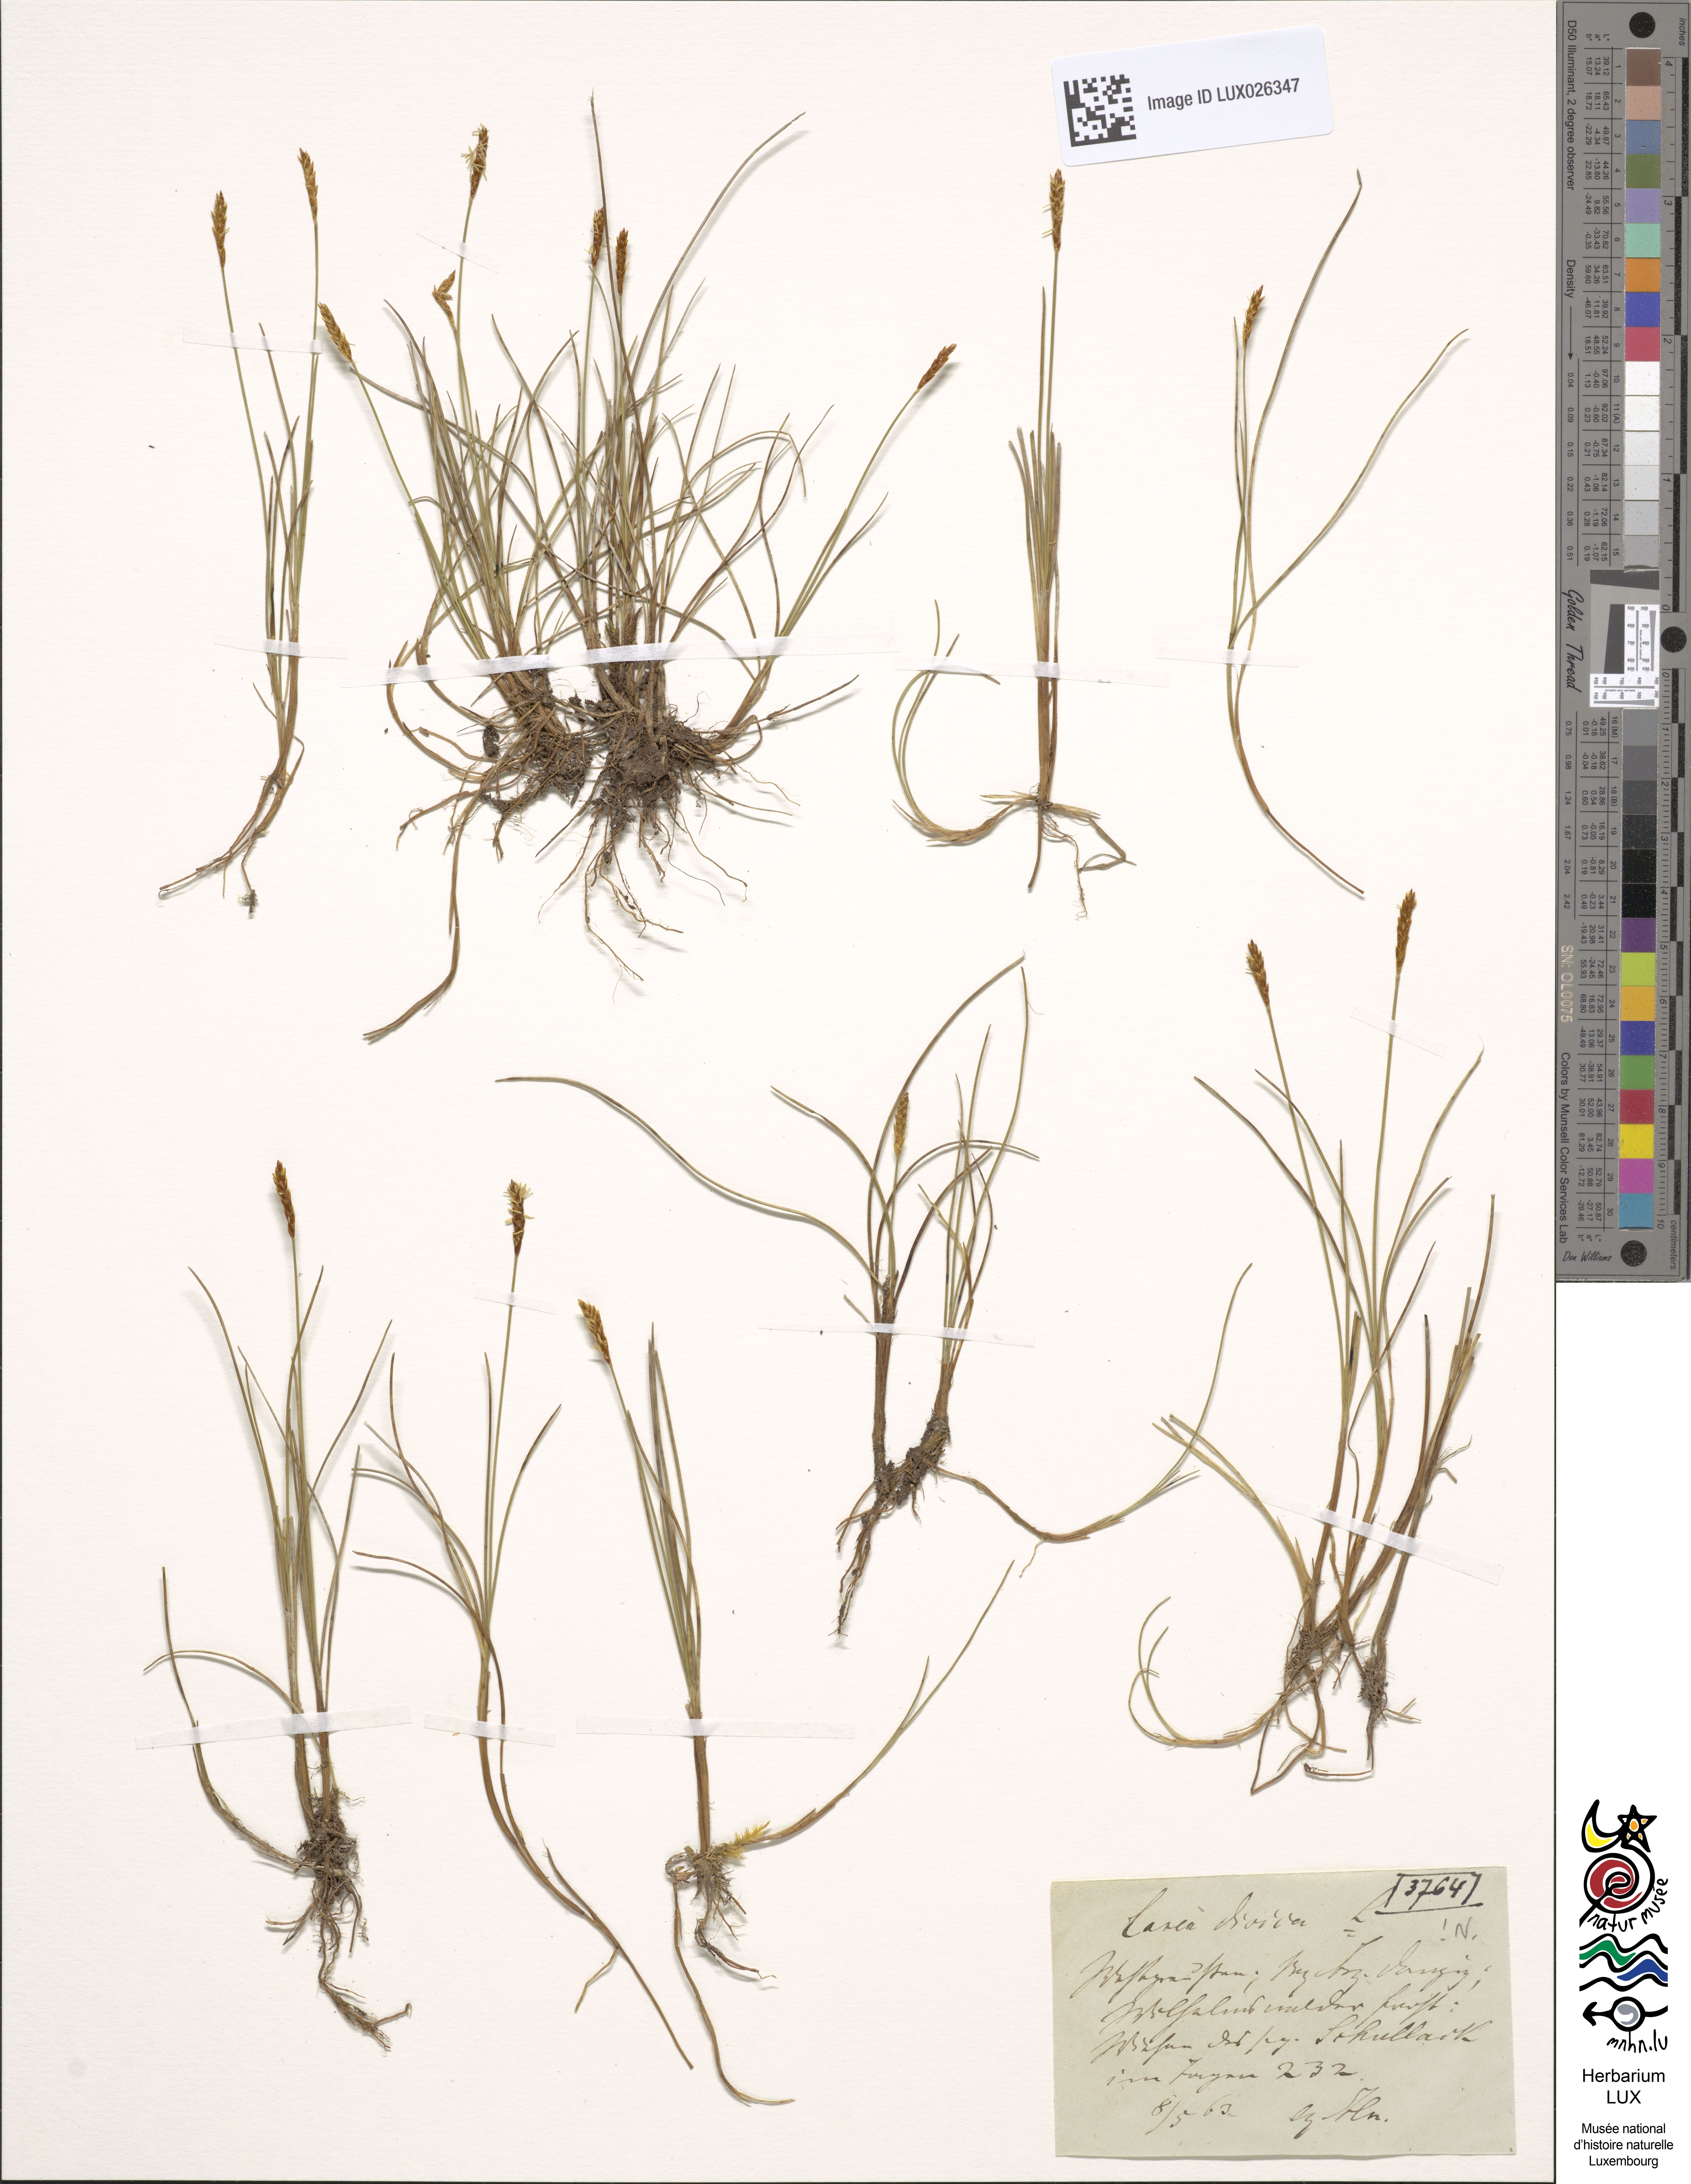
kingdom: Plantae
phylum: Tracheophyta
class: Liliopsida
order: Poales
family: Cyperaceae
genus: Carex
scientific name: Carex dioica
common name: Dioecious sedge
